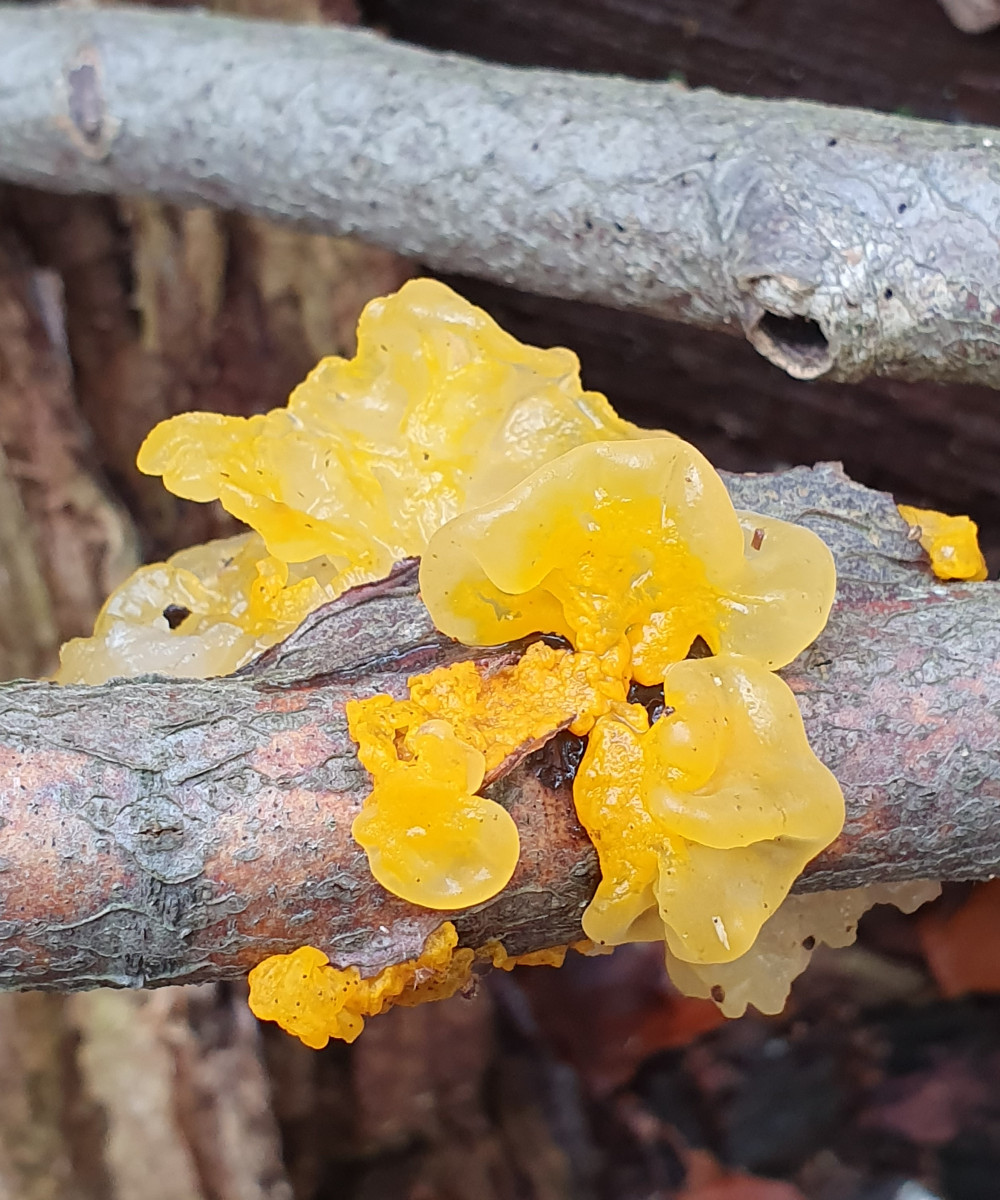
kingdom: Fungi
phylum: Basidiomycota
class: Tremellomycetes
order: Tremellales
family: Tremellaceae
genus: Tremella
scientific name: Tremella mesenterica
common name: gul bævresvamp
